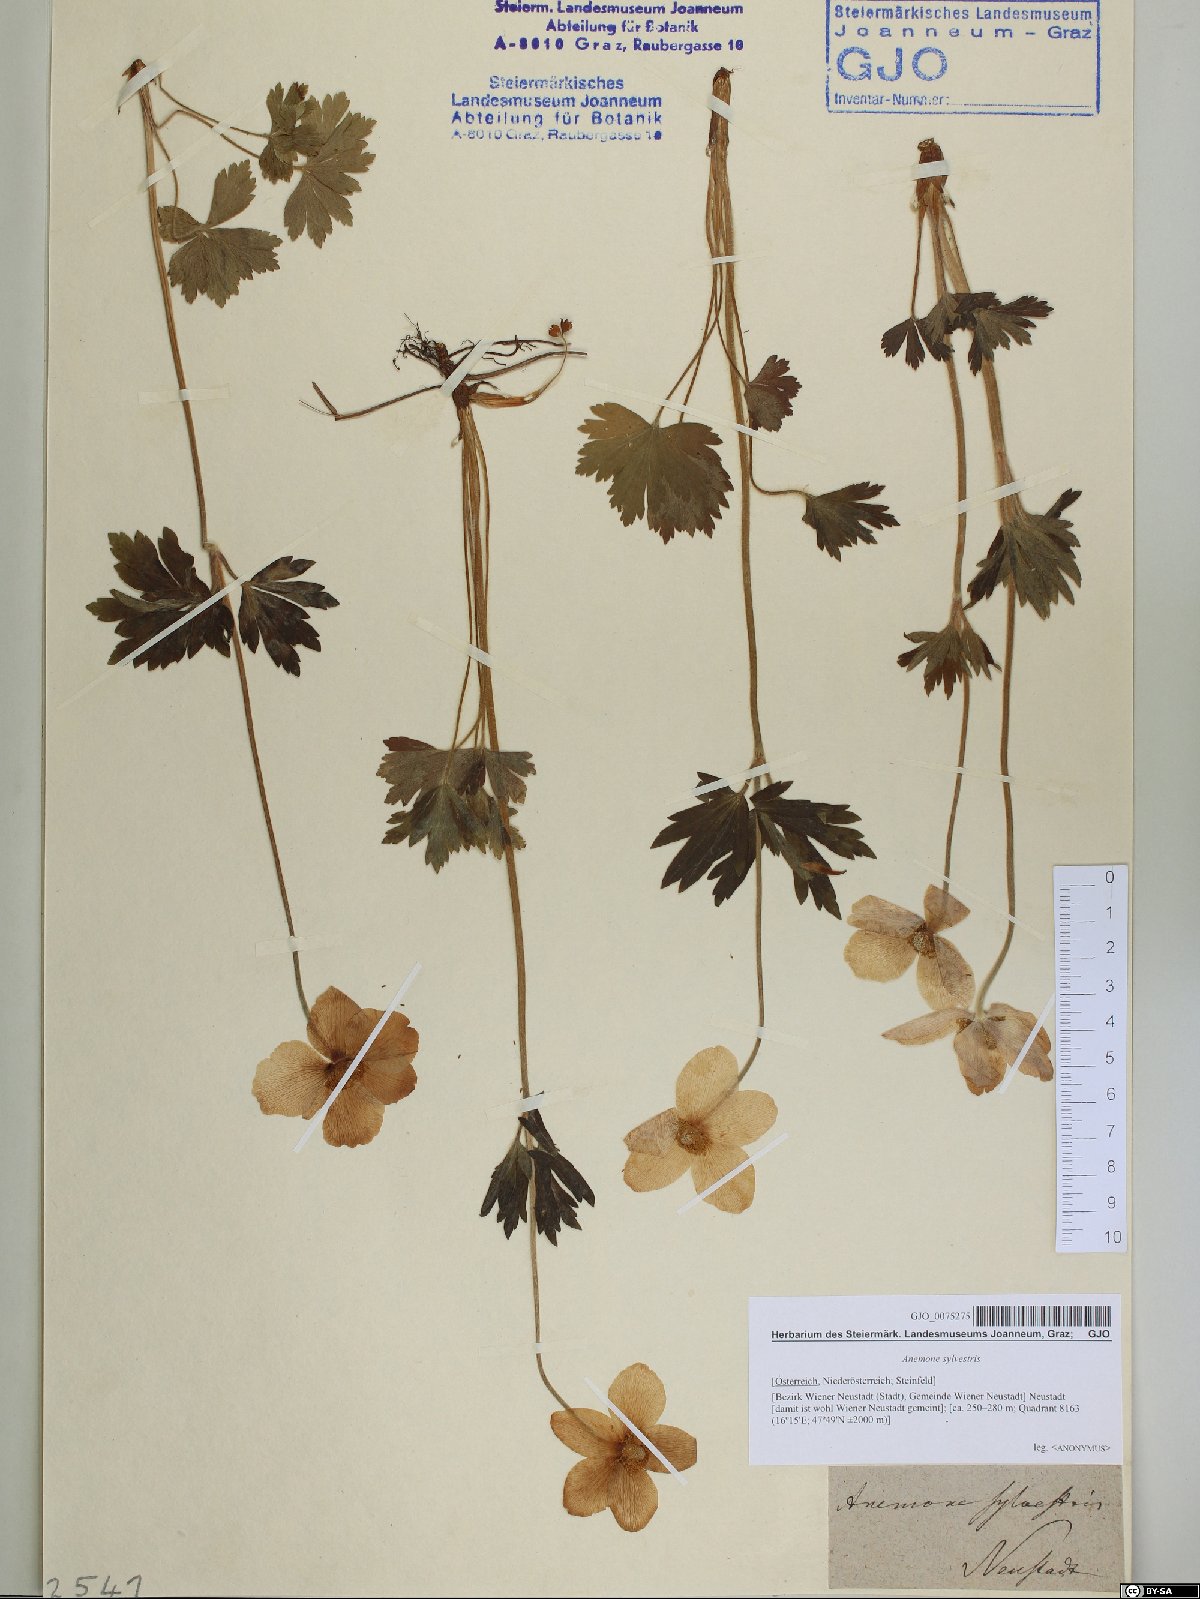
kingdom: Plantae
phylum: Tracheophyta
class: Magnoliopsida
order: Ranunculales
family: Ranunculaceae
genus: Anemone
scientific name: Anemone sylvestris
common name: Snowdrop anemone
